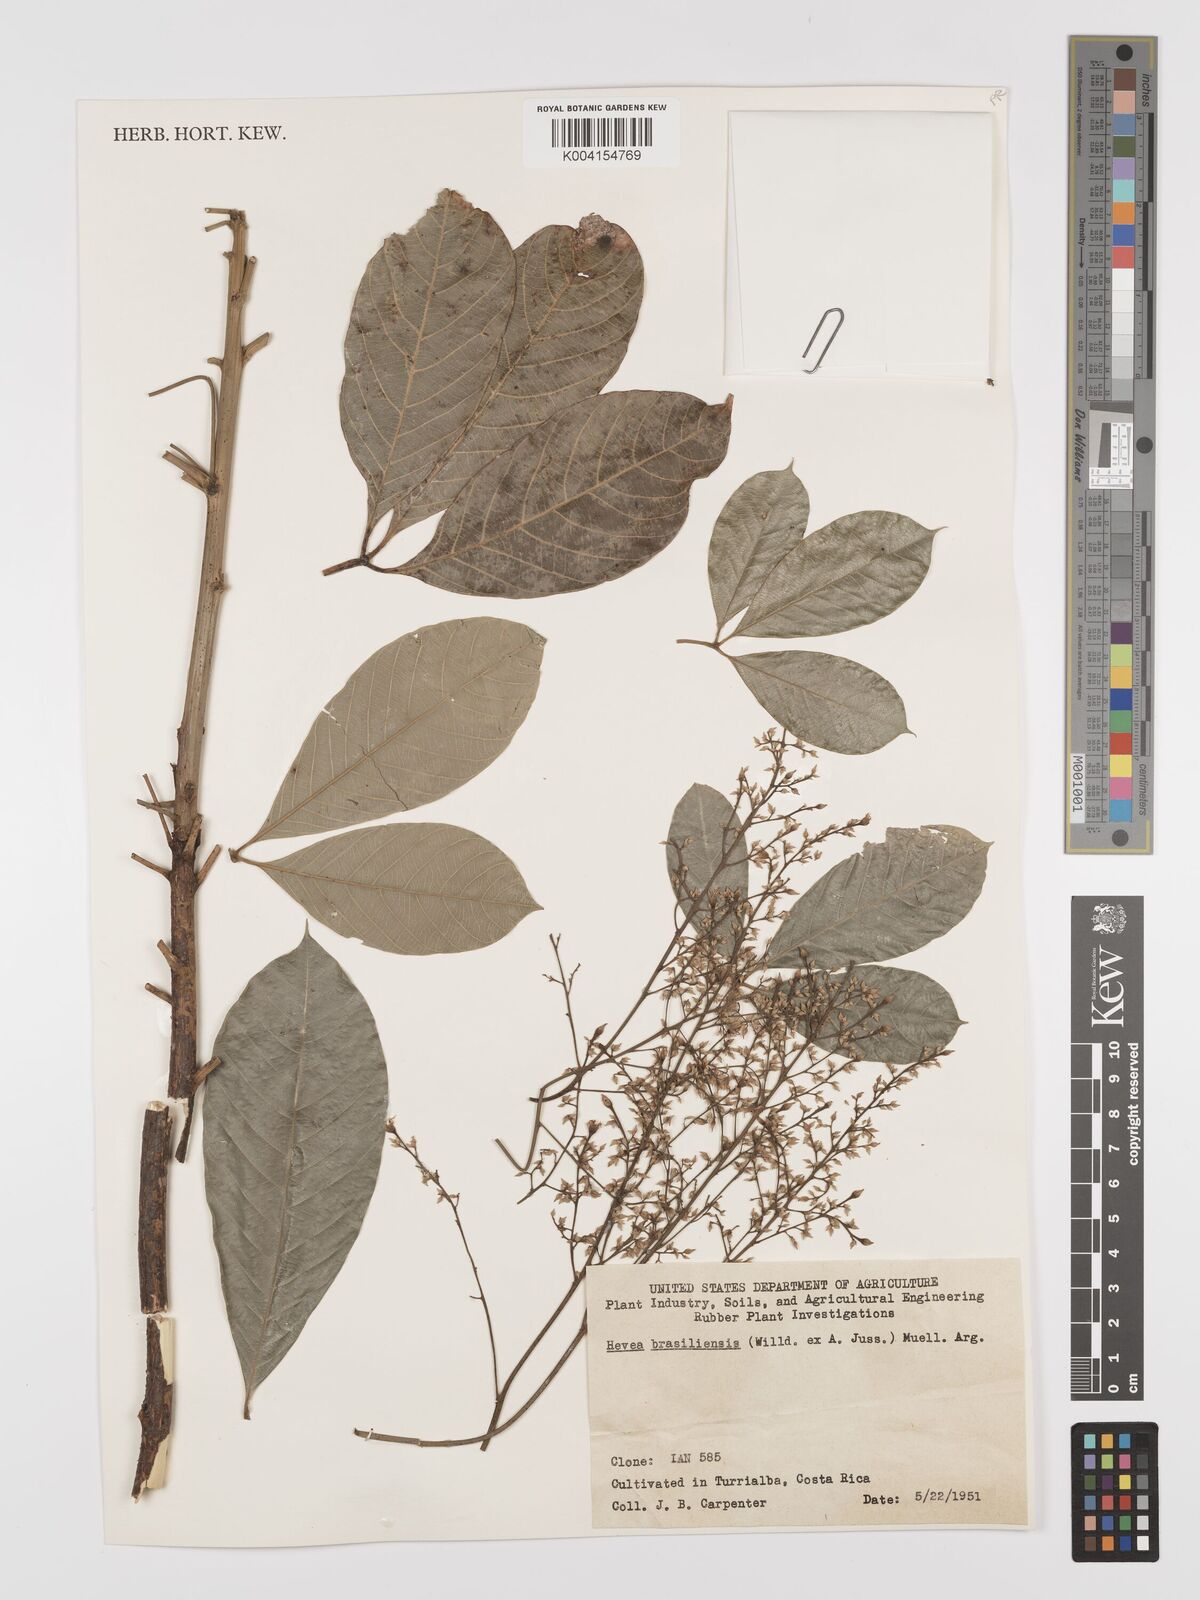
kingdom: Plantae
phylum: Tracheophyta
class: Magnoliopsida
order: Malpighiales
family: Euphorbiaceae
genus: Hevea
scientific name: Hevea brasiliensis
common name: Natural rubber
